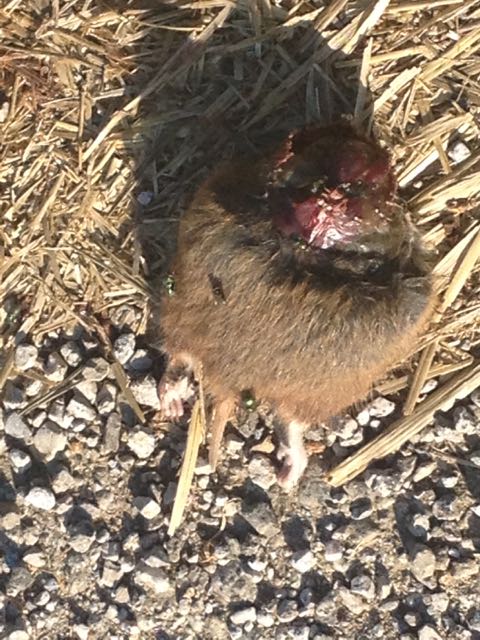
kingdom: Animalia
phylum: Chordata
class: Mammalia
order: Rodentia
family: Cricetidae
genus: Microtus
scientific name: Microtus
